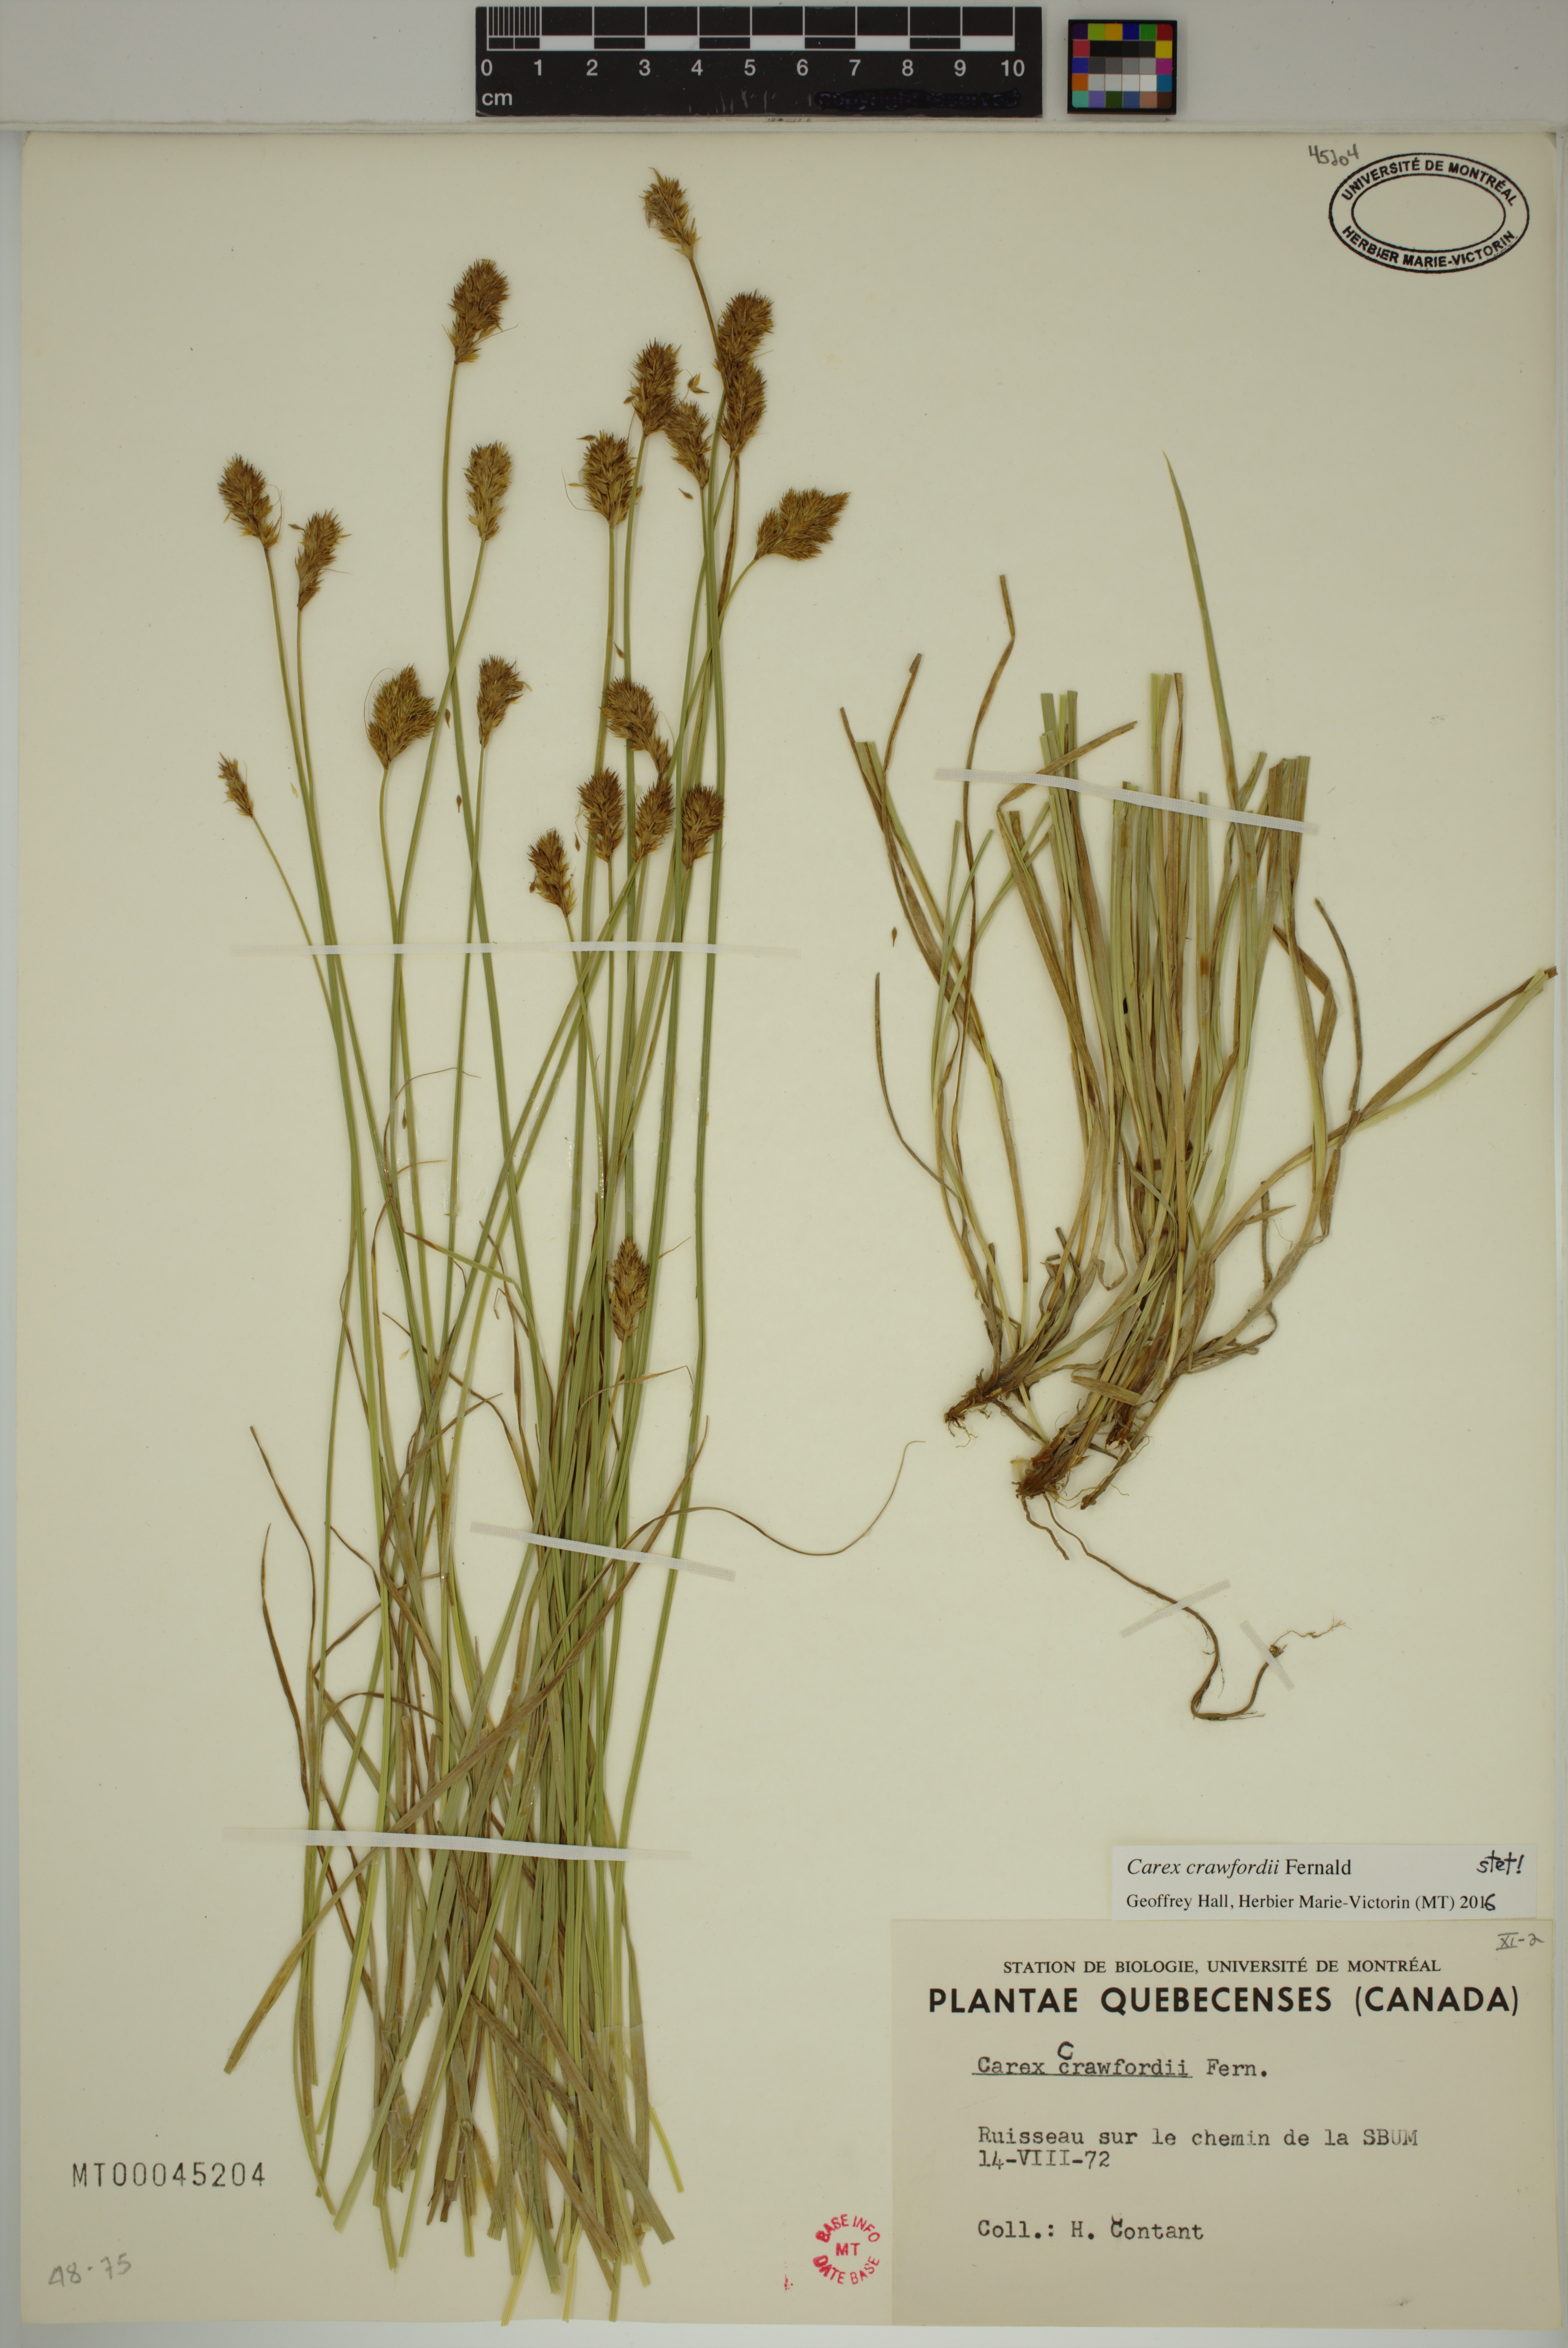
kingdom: Plantae
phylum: Tracheophyta
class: Liliopsida
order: Poales
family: Cyperaceae
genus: Carex
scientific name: Carex crawfordii
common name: Crawford's sedge
